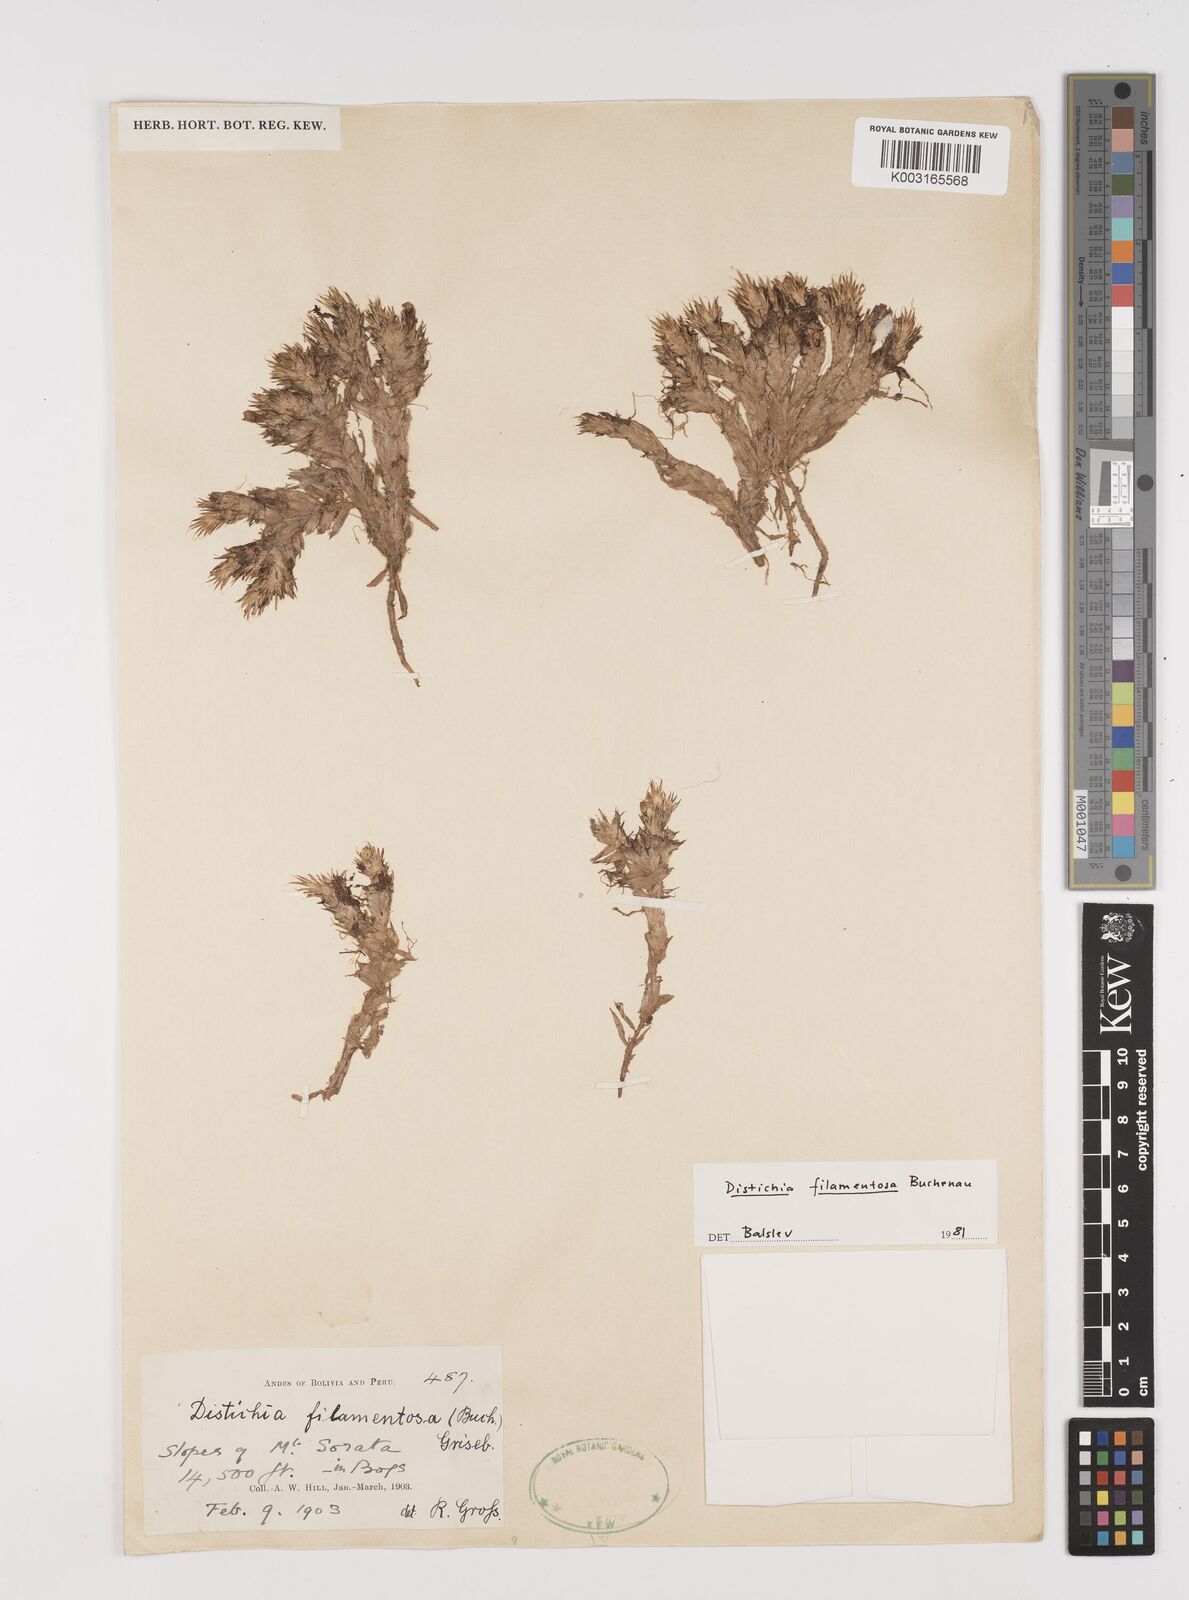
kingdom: Plantae
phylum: Tracheophyta
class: Liliopsida
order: Poales
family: Juncaceae
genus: Distichia
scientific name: Distichia filamentosa
